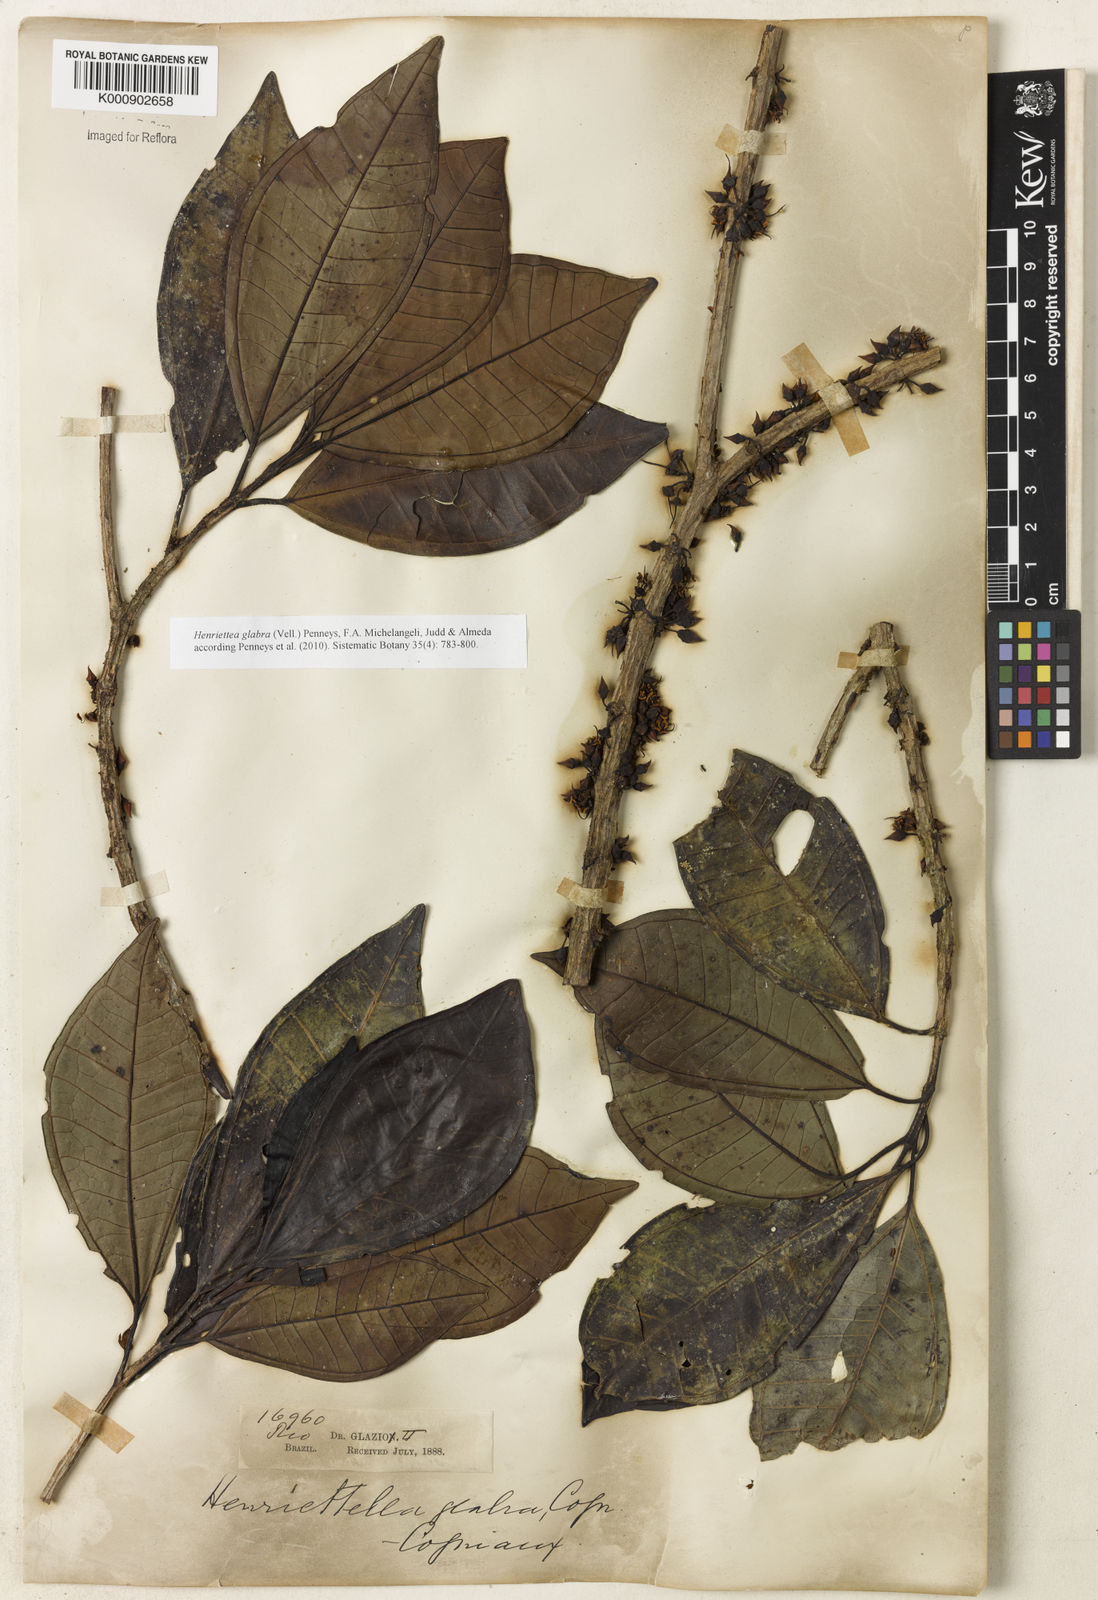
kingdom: Plantae
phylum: Tracheophyta
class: Magnoliopsida
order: Myrtales
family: Melastomataceae
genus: Henriettea
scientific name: Henriettea glabra
